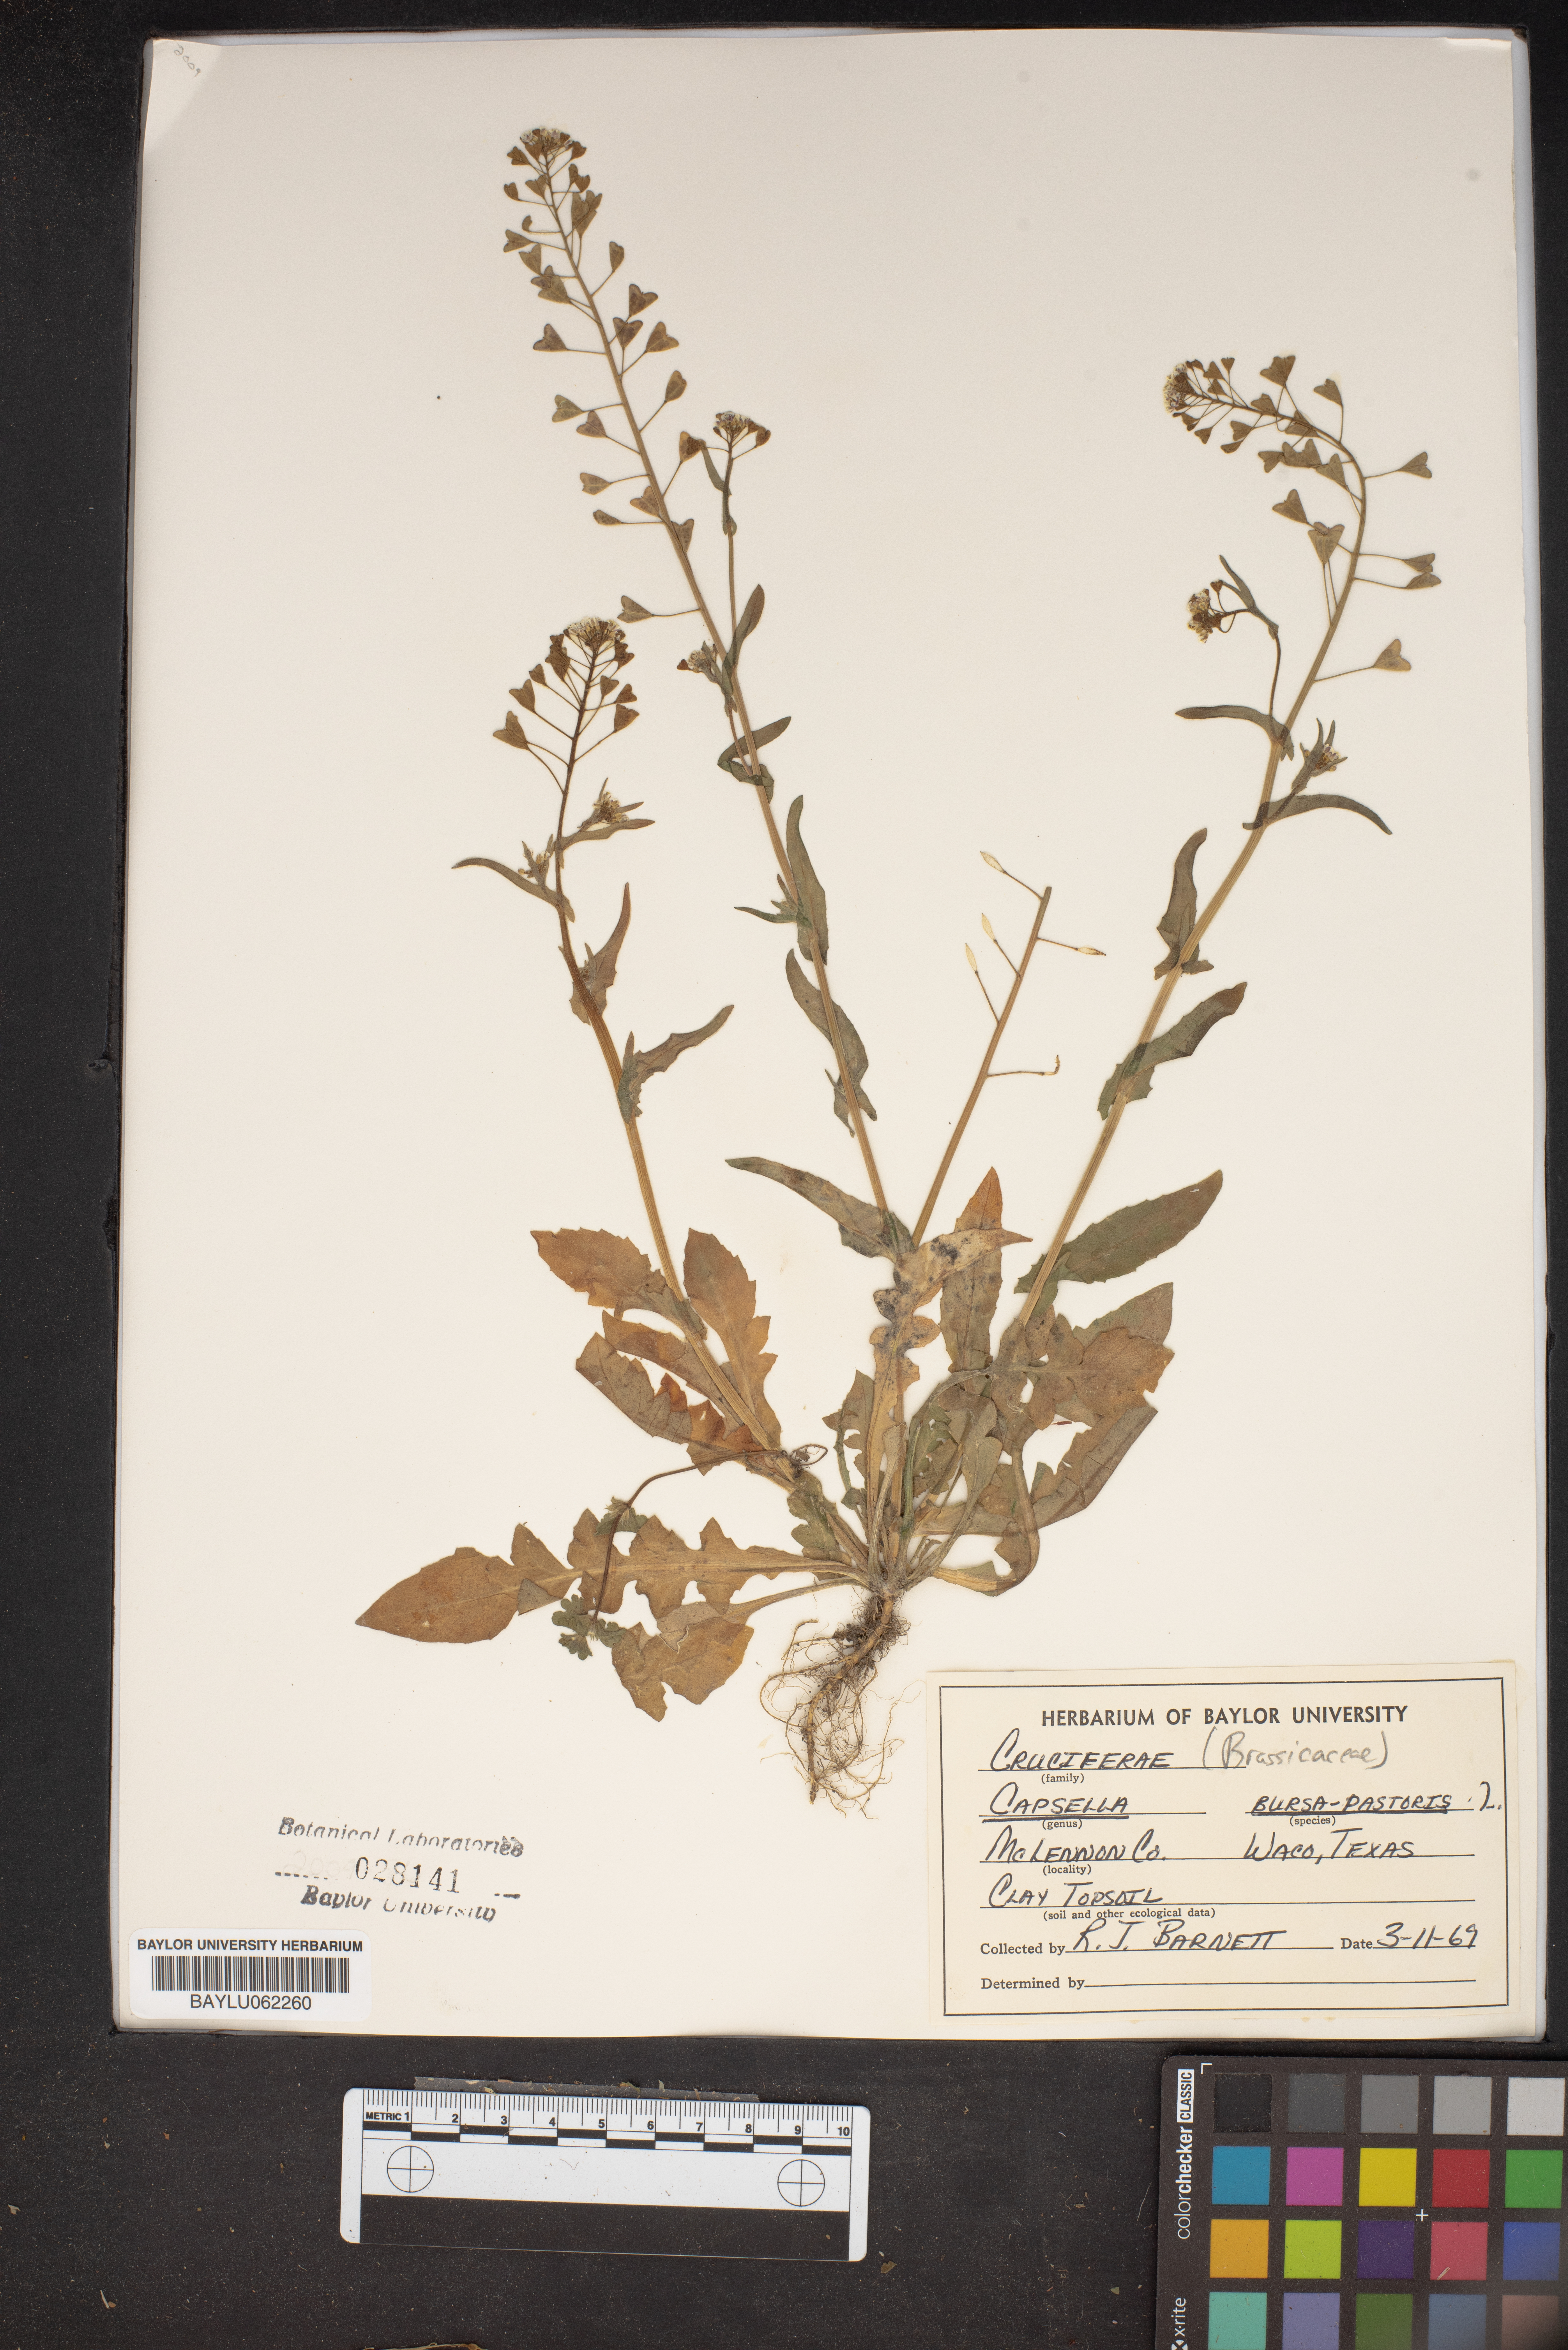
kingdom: Plantae
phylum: Tracheophyta
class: Magnoliopsida
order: Brassicales
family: Brassicaceae
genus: Capsella
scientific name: Capsella bursa-pastoris
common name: Shepherd's purse
